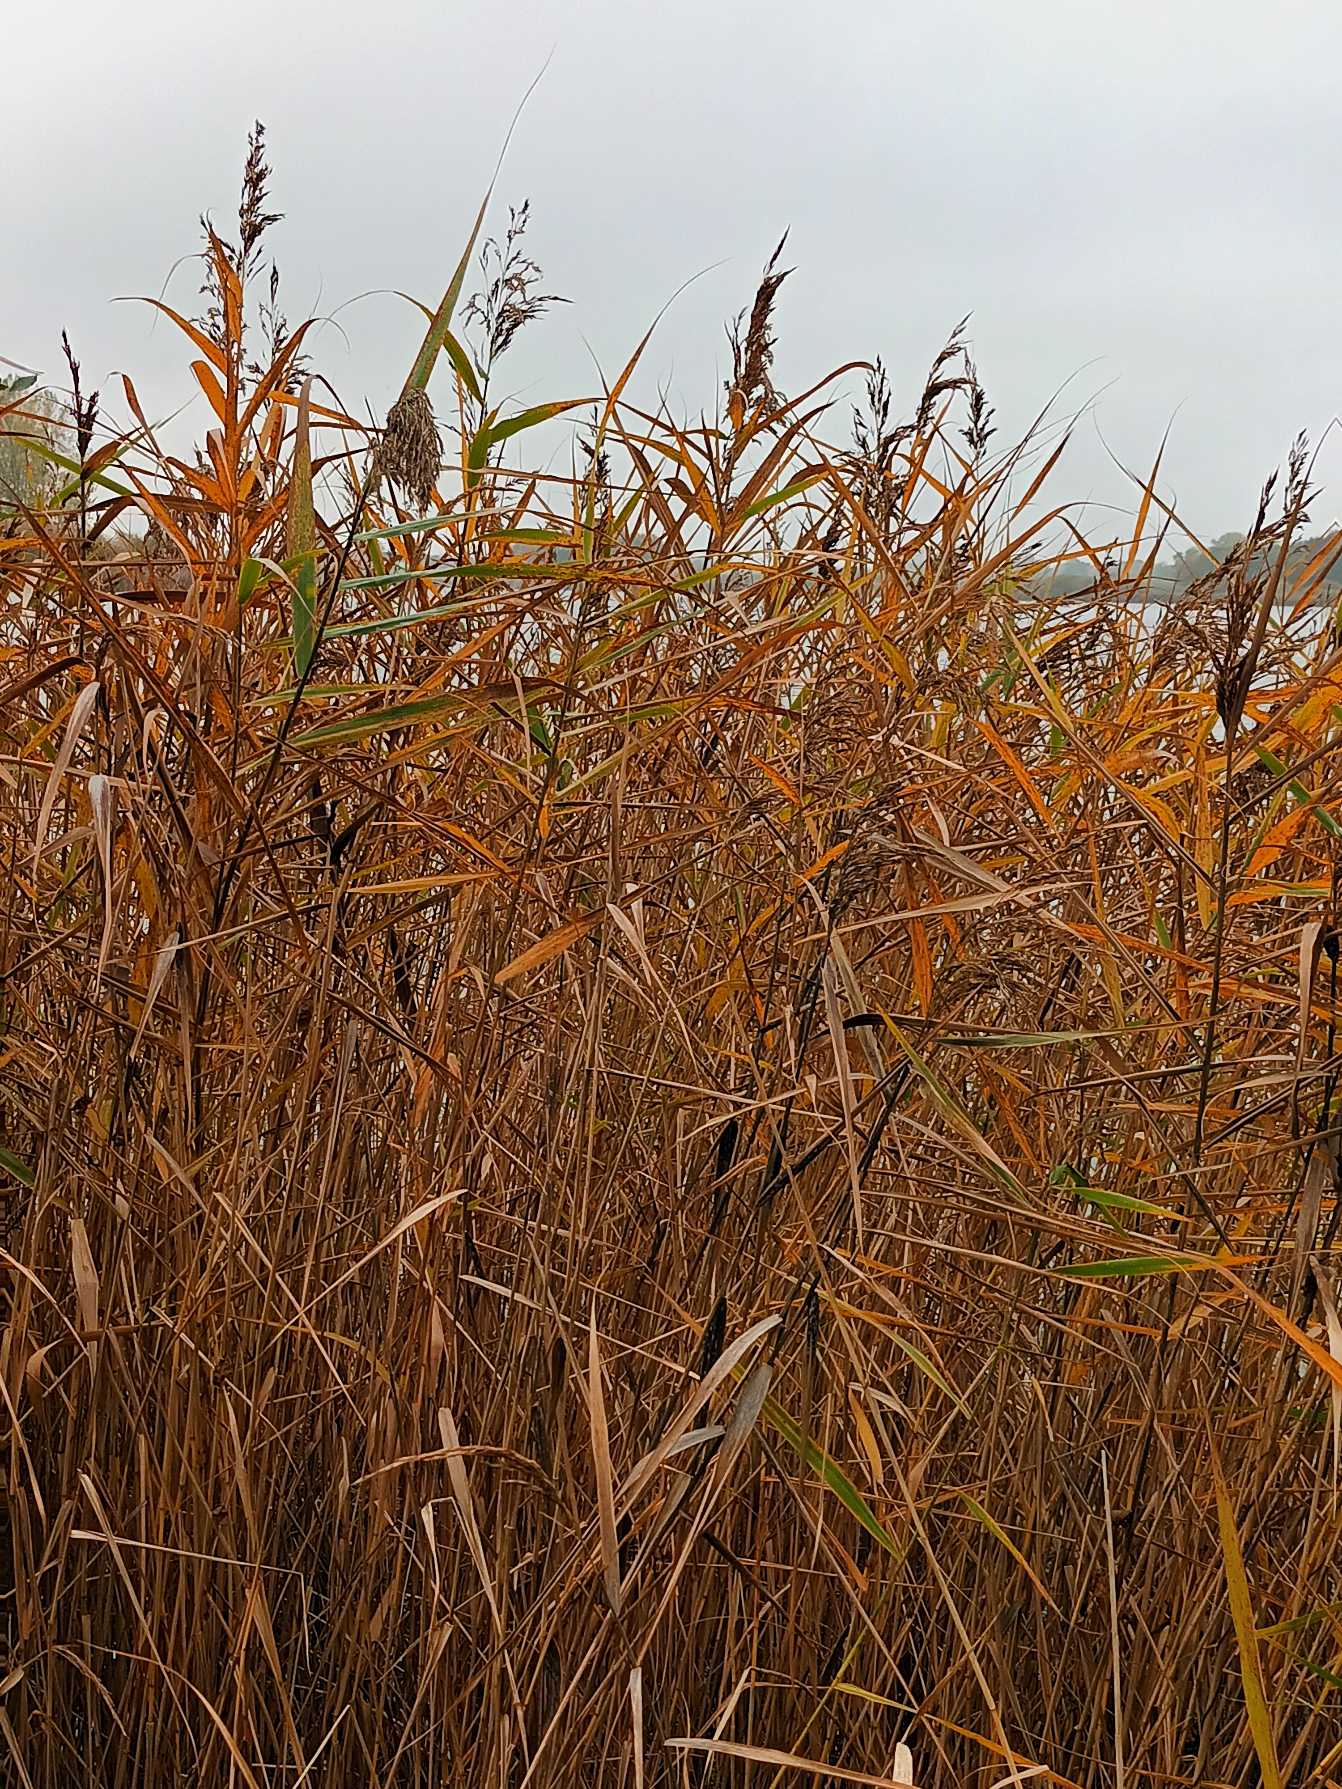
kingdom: Plantae
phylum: Tracheophyta
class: Liliopsida
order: Poales
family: Poaceae
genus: Phragmites
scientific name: Phragmites australis
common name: Tagrør
